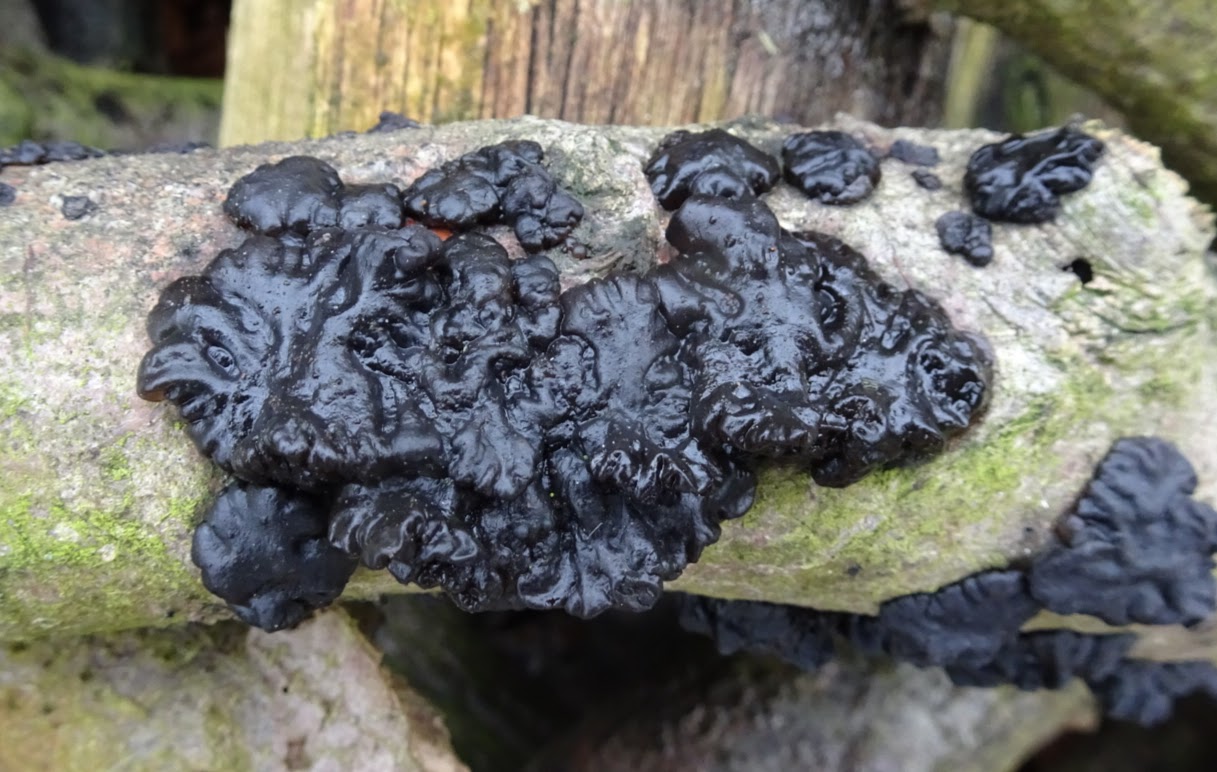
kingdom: Fungi
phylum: Basidiomycota
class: Agaricomycetes
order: Auriculariales
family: Auriculariaceae
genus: Exidia
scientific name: Exidia nigricans
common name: almindelig bævretop
